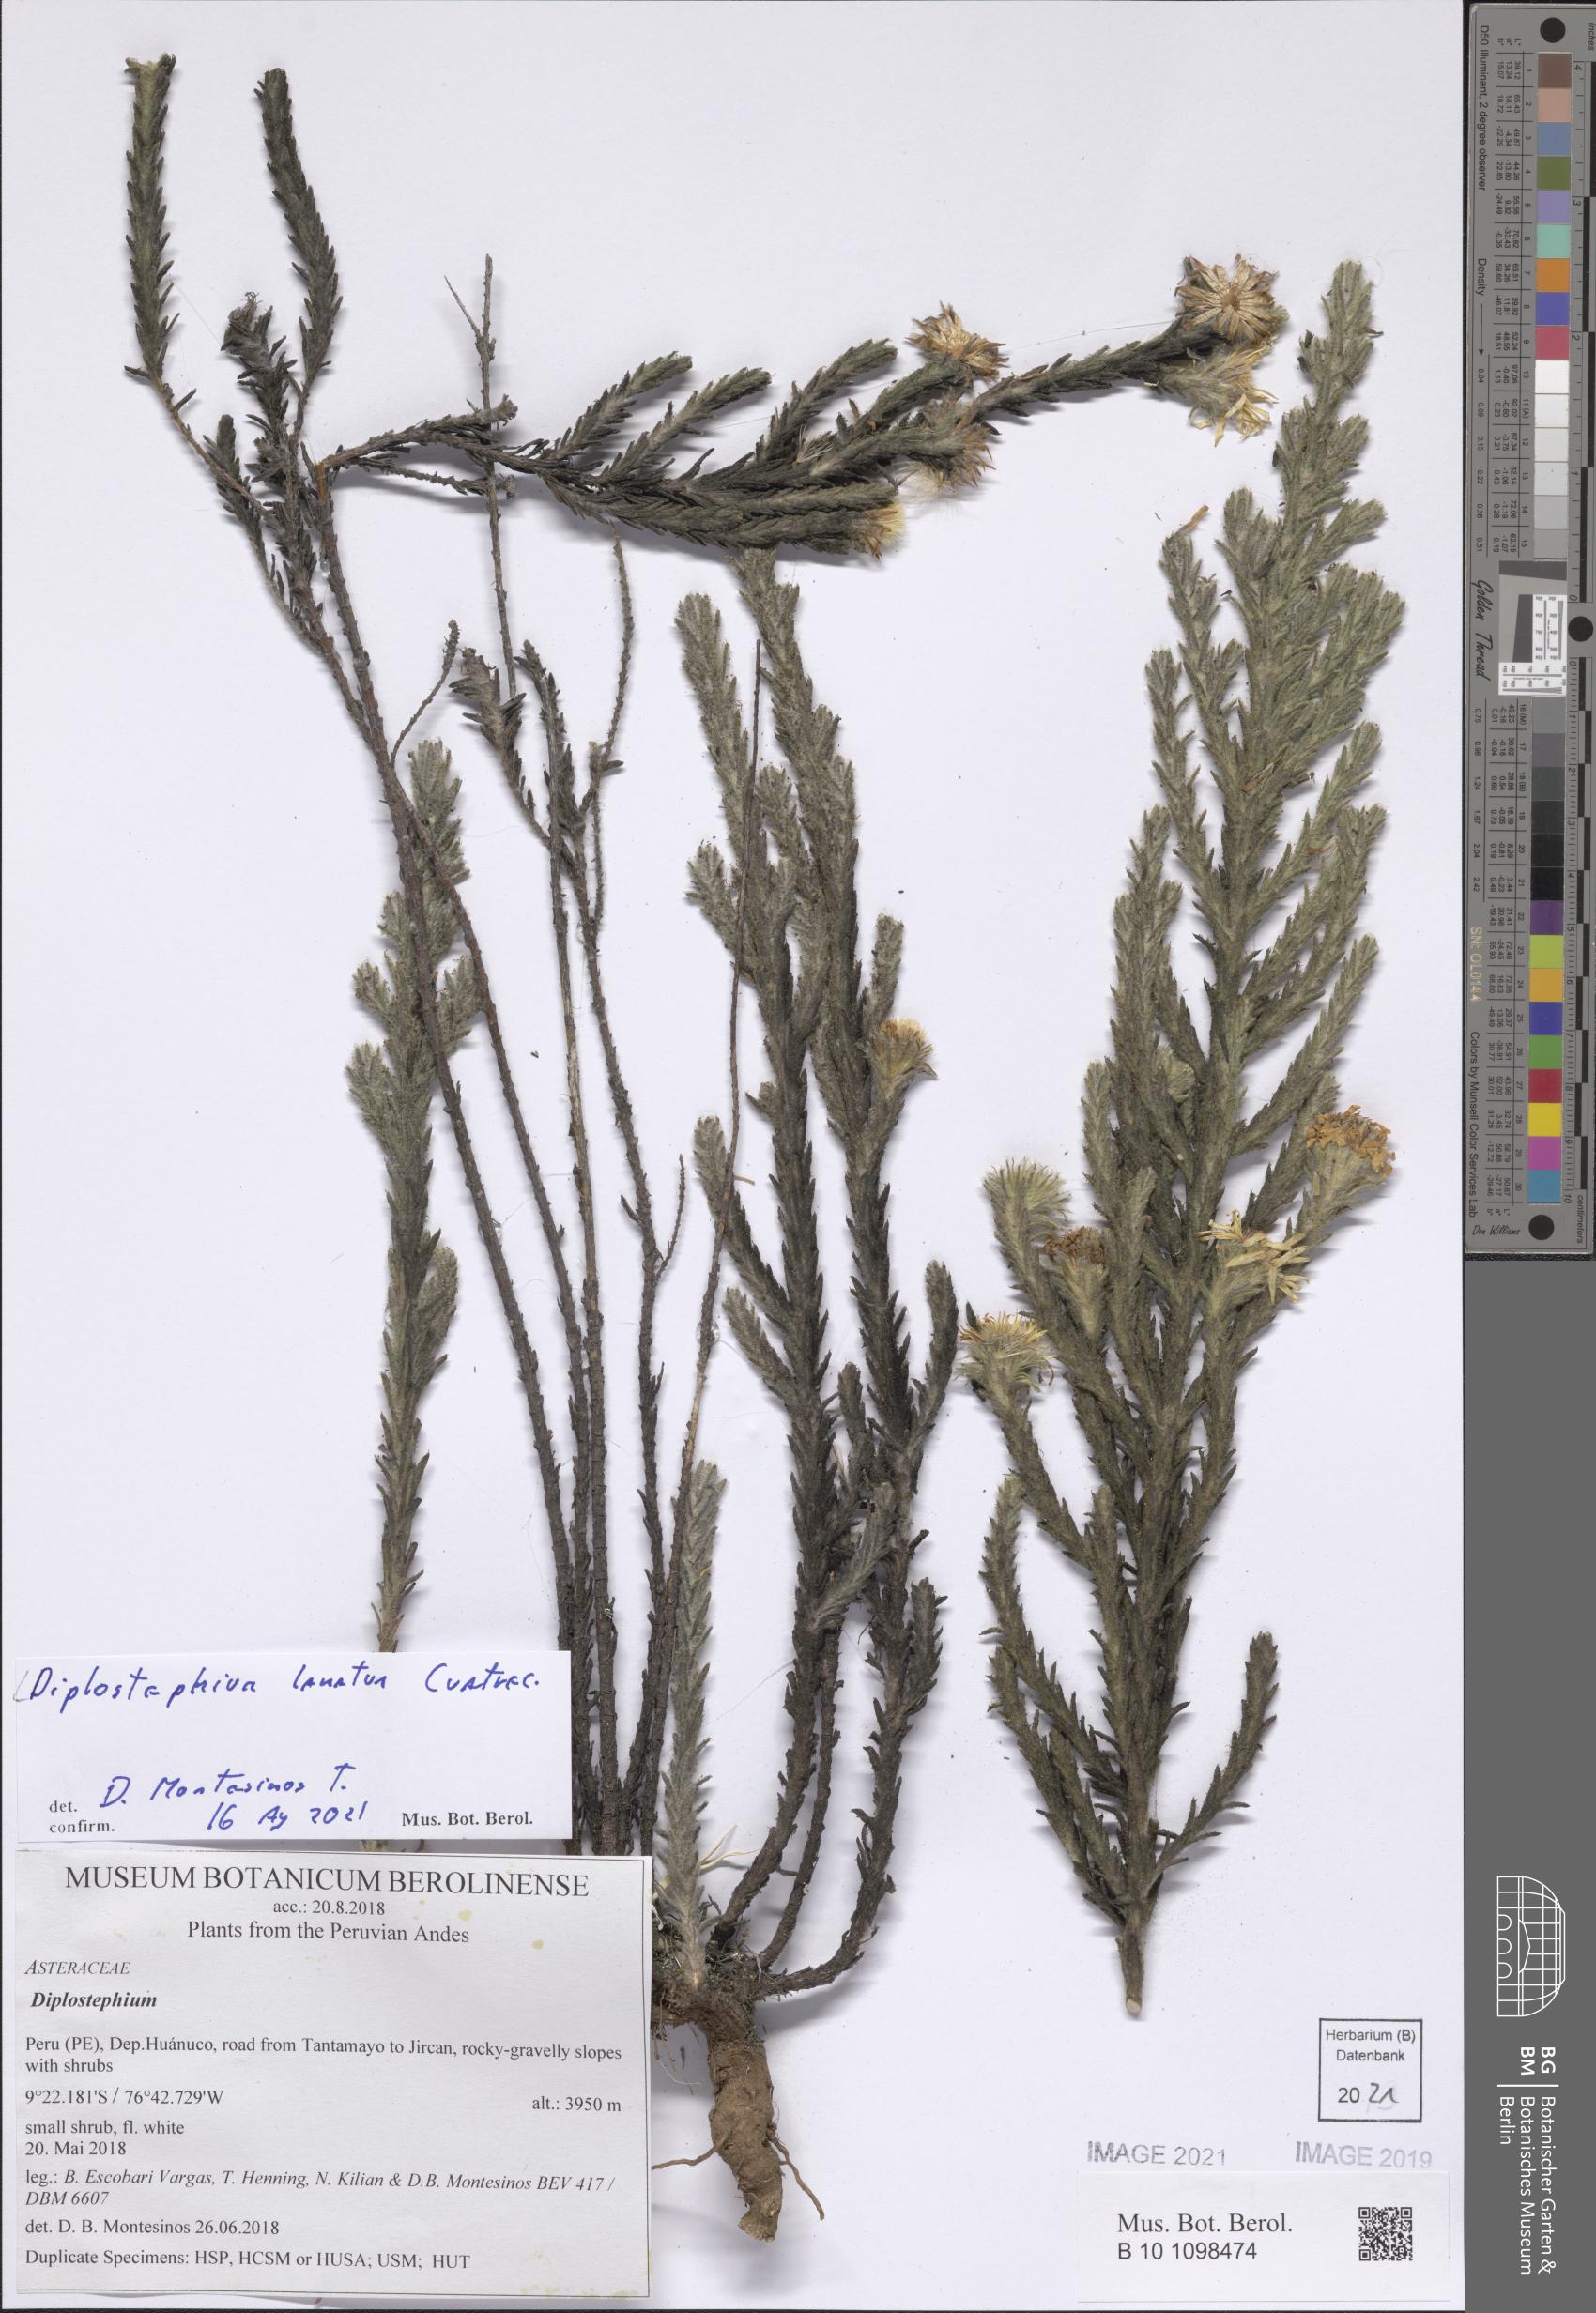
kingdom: Plantae
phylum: Tracheophyta
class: Magnoliopsida
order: Asterales
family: Asteraceae
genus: Diplostephium
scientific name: Diplostephium lanatum
